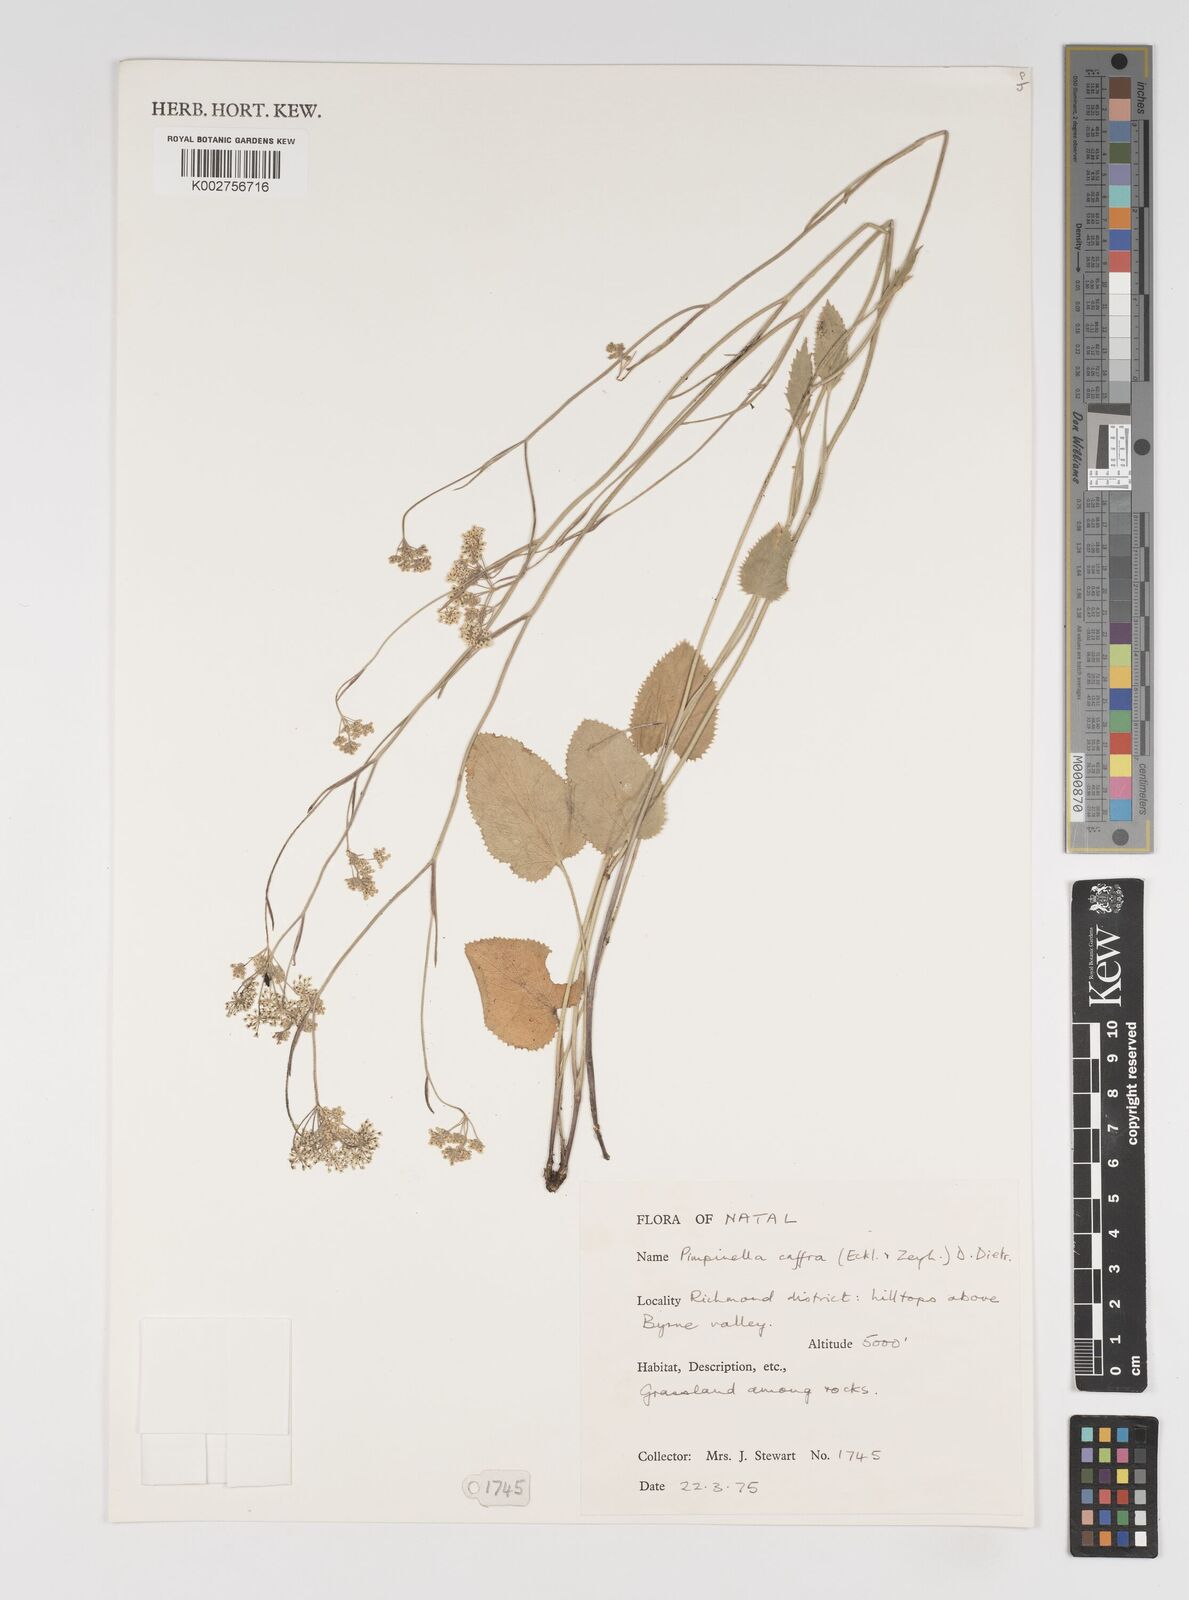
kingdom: Plantae
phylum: Tracheophyta
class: Magnoliopsida
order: Apiales
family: Apiaceae
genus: Pimpinella
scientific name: Pimpinella
